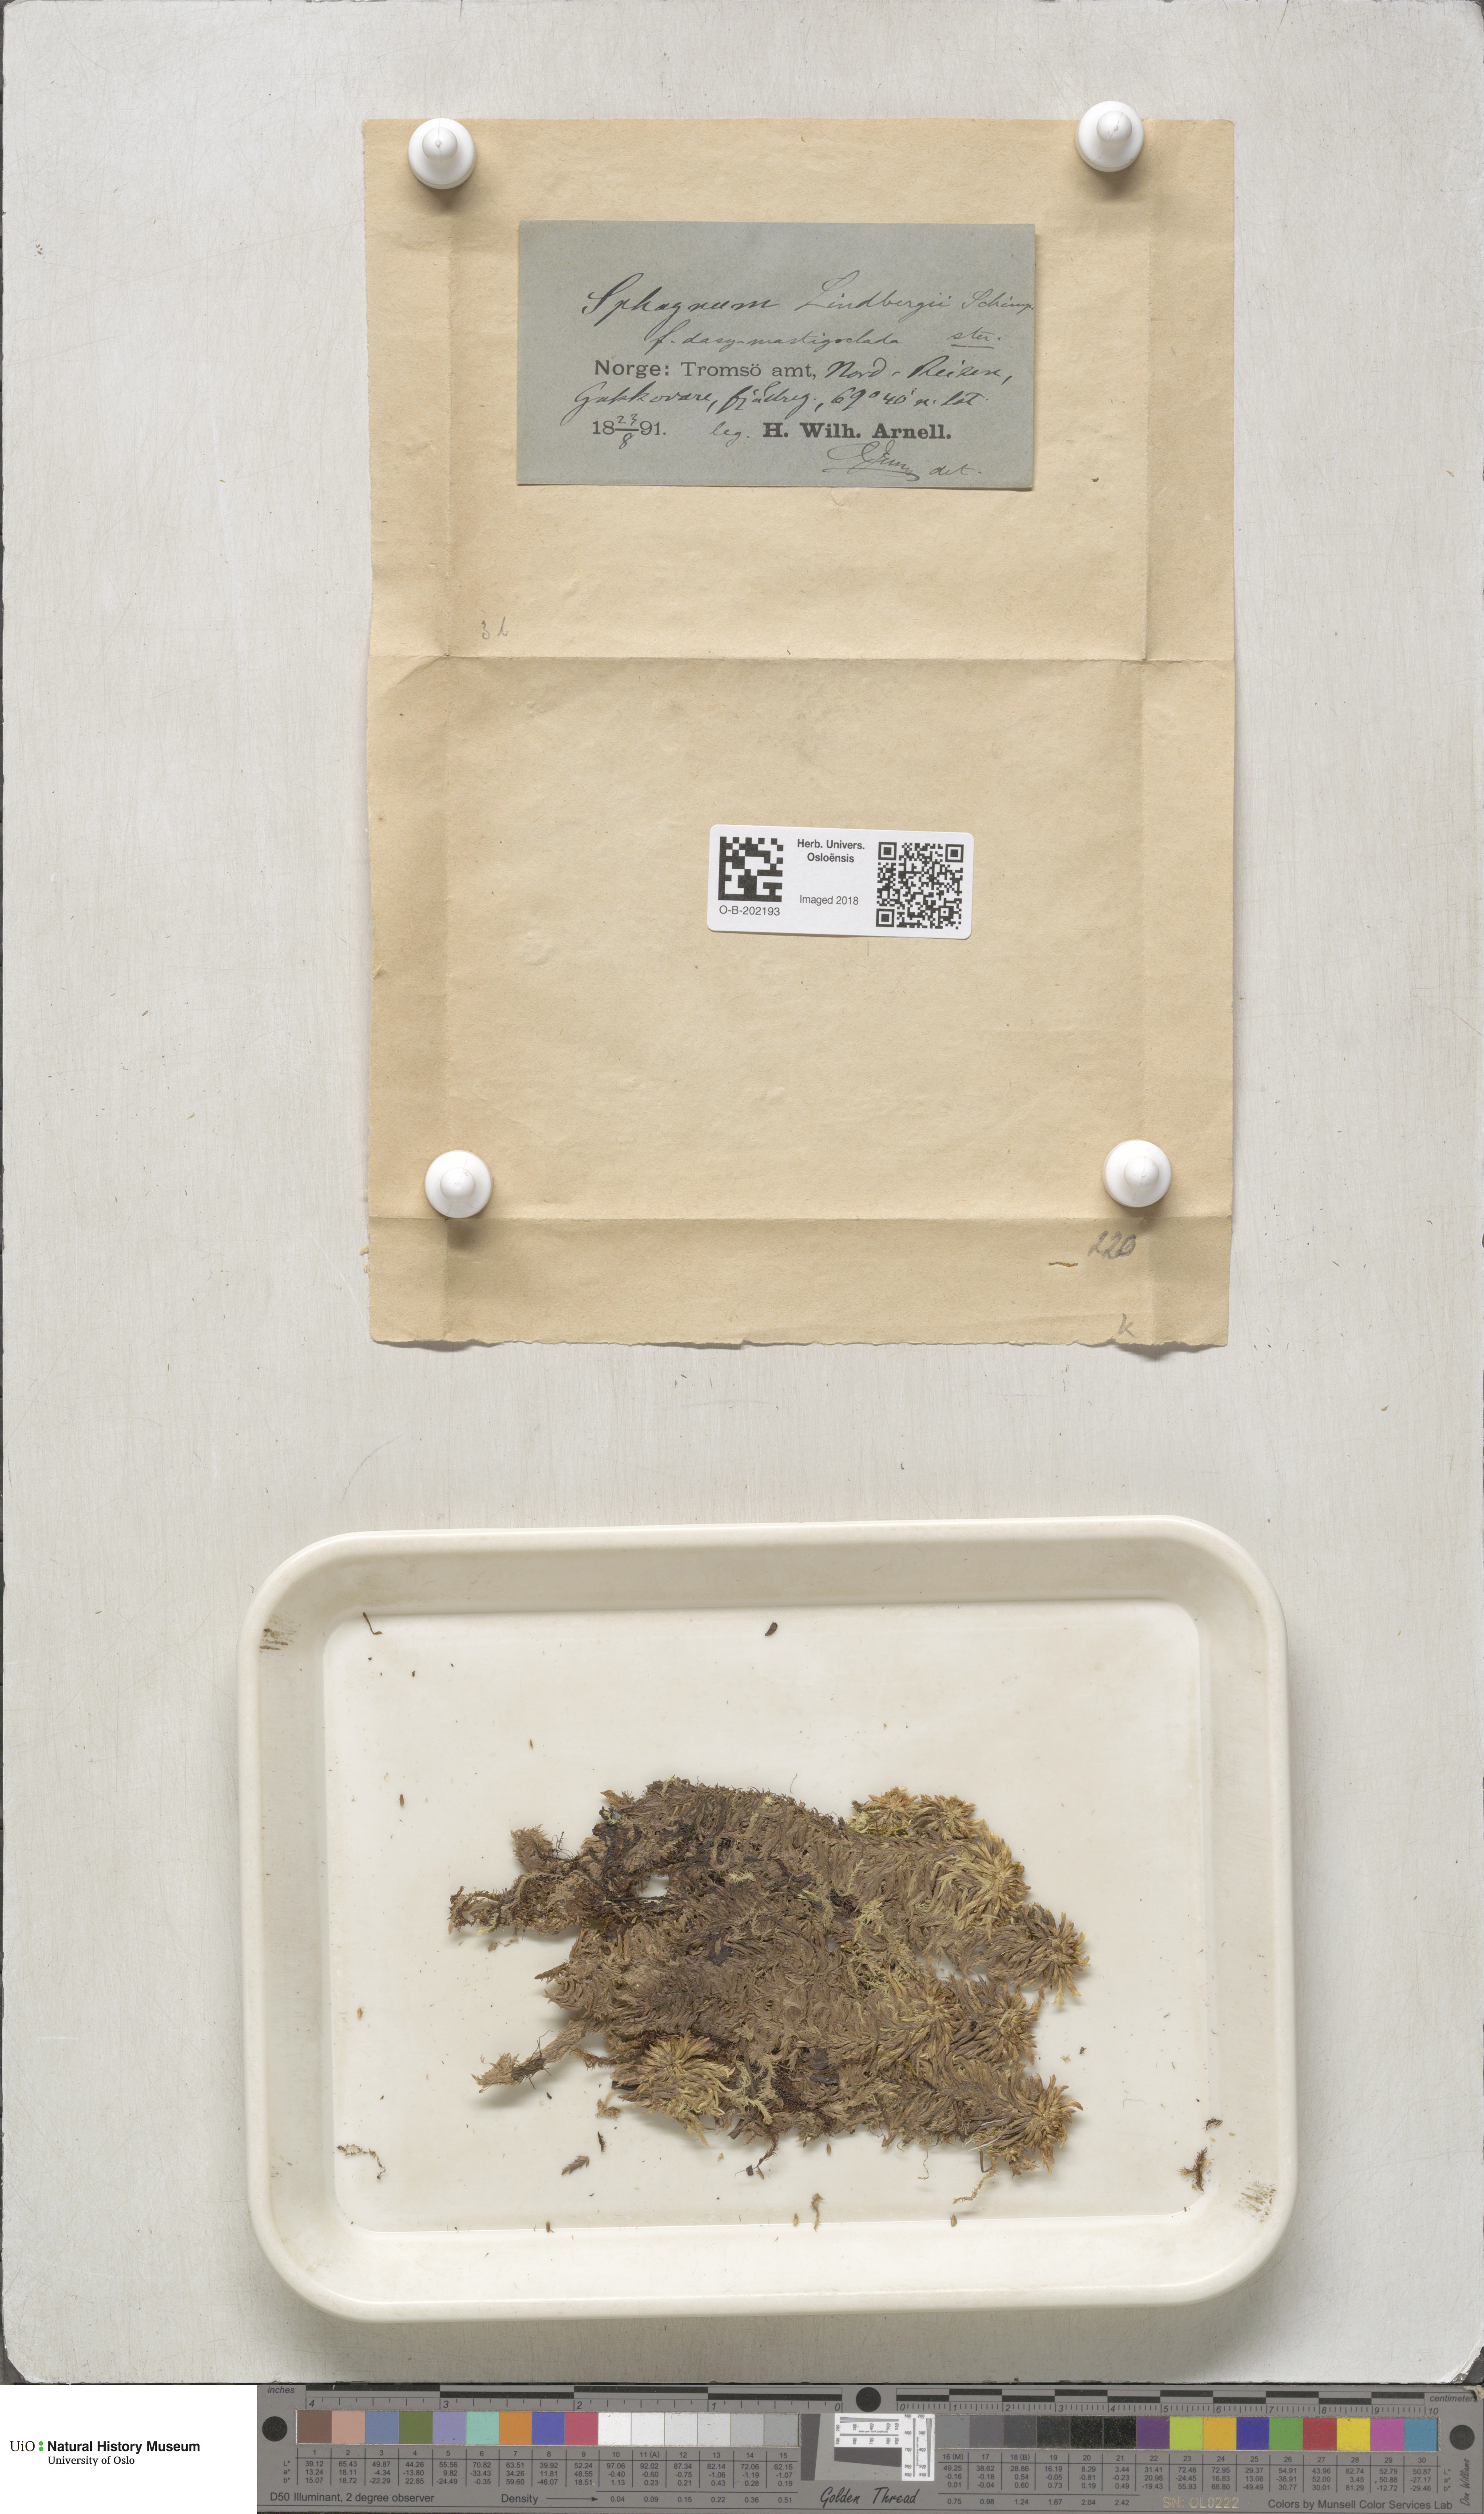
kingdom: Plantae
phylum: Bryophyta
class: Sphagnopsida
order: Sphagnales
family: Sphagnaceae
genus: Sphagnum
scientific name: Sphagnum lindbergii
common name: Lindberg's peat moss
